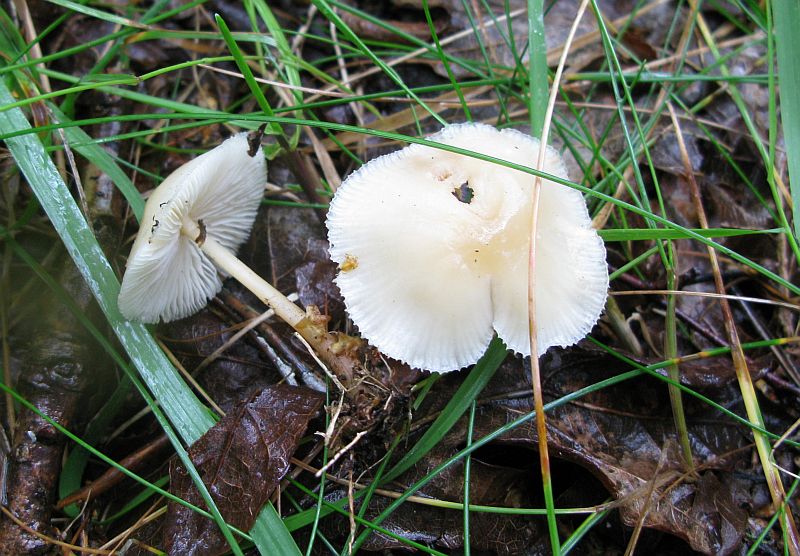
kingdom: Fungi
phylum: Basidiomycota
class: Agaricomycetes
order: Agaricales
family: Omphalotaceae
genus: Gymnopus
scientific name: Gymnopus dryophilus
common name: løv-fladhat
